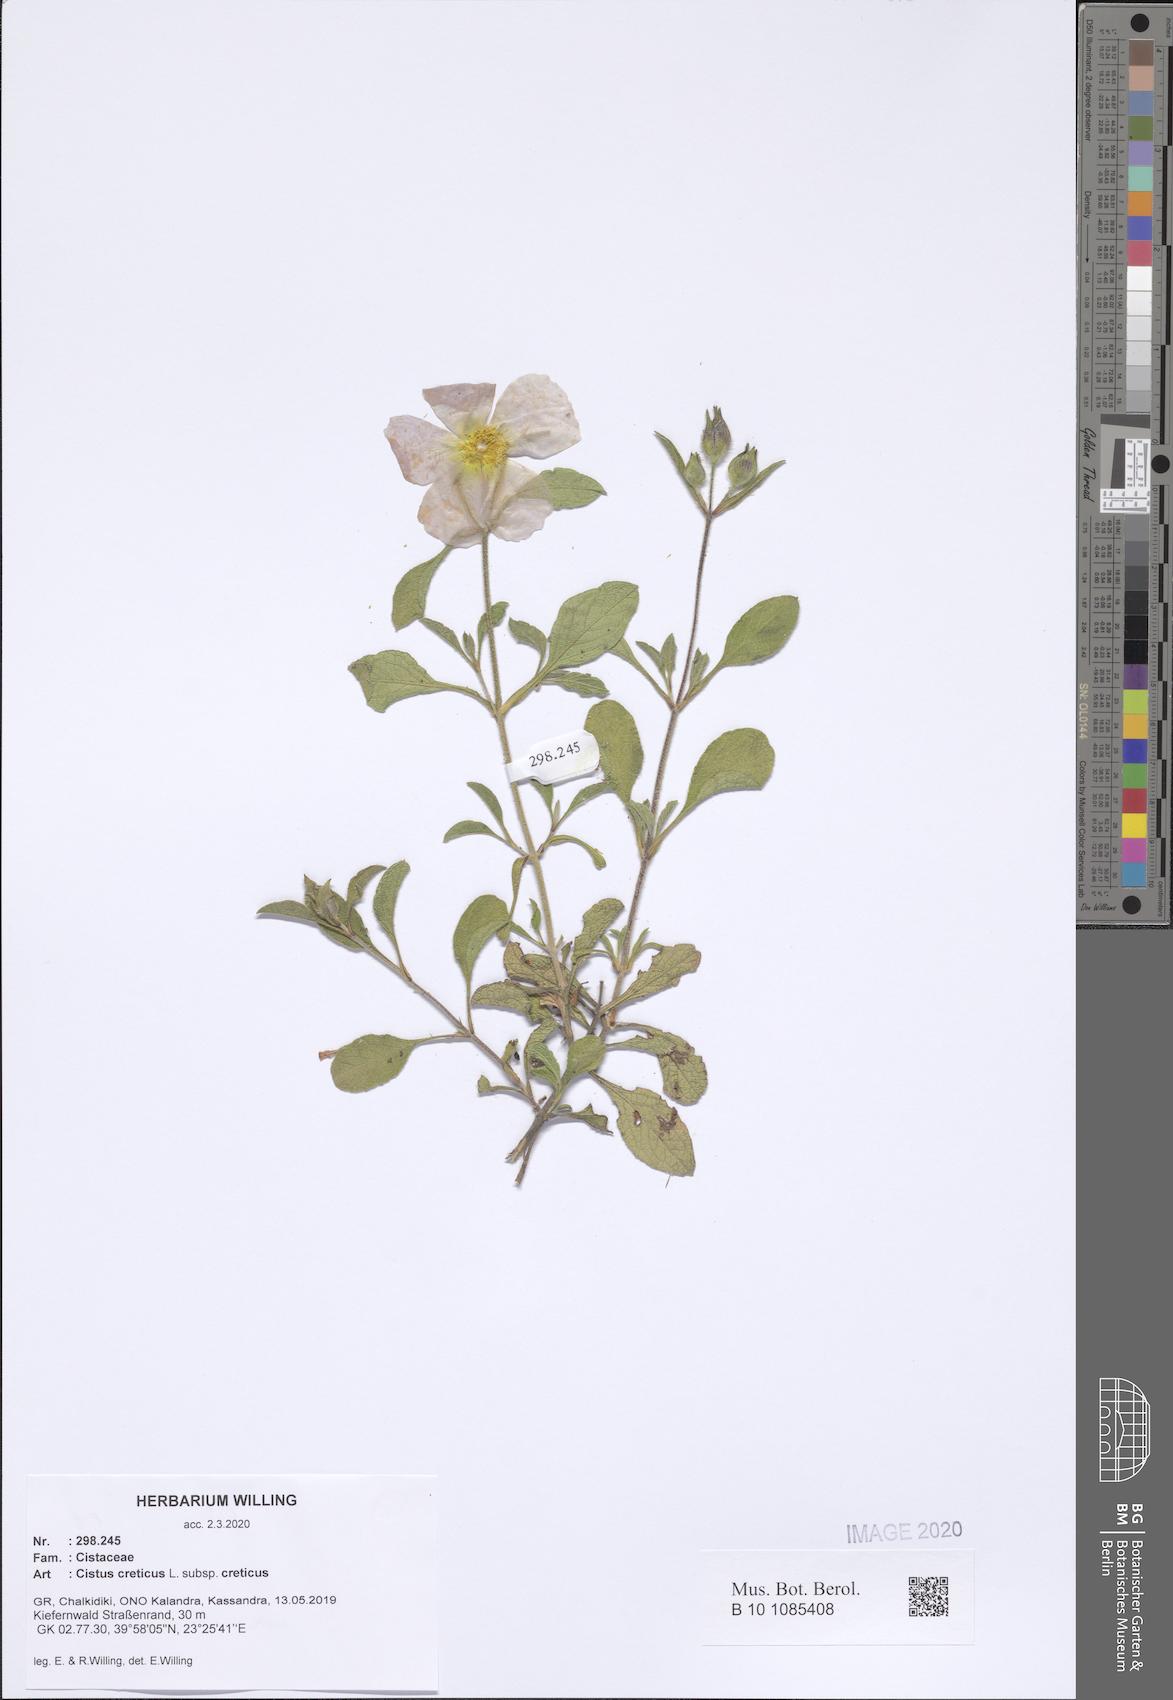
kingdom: Plantae
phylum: Tracheophyta
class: Magnoliopsida
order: Malvales
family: Cistaceae
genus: Cistus
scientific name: Cistus creticus
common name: Cretan rockrose
